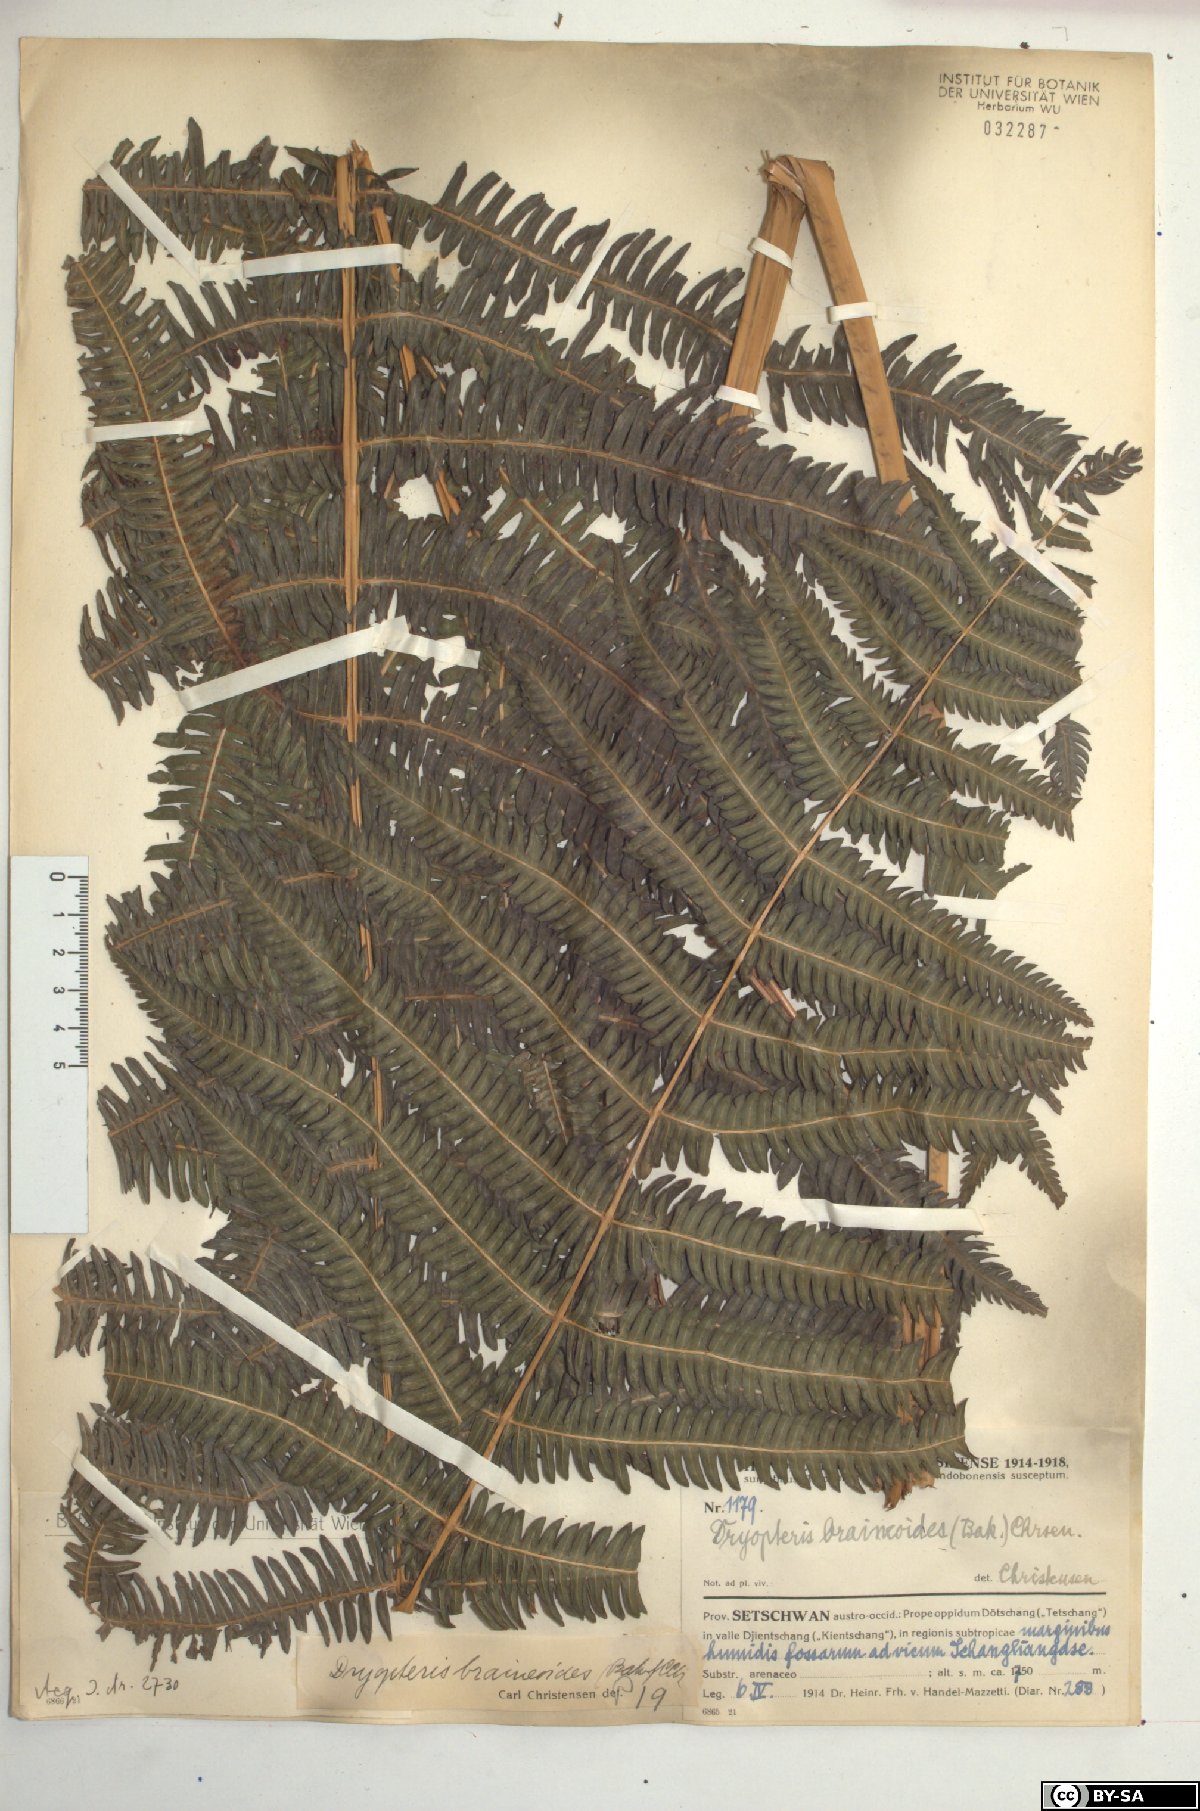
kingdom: Plantae
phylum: Tracheophyta
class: Polypodiopsida
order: Polypodiales
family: Dryopteridaceae
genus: Dryopteris
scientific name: Dryopteris
